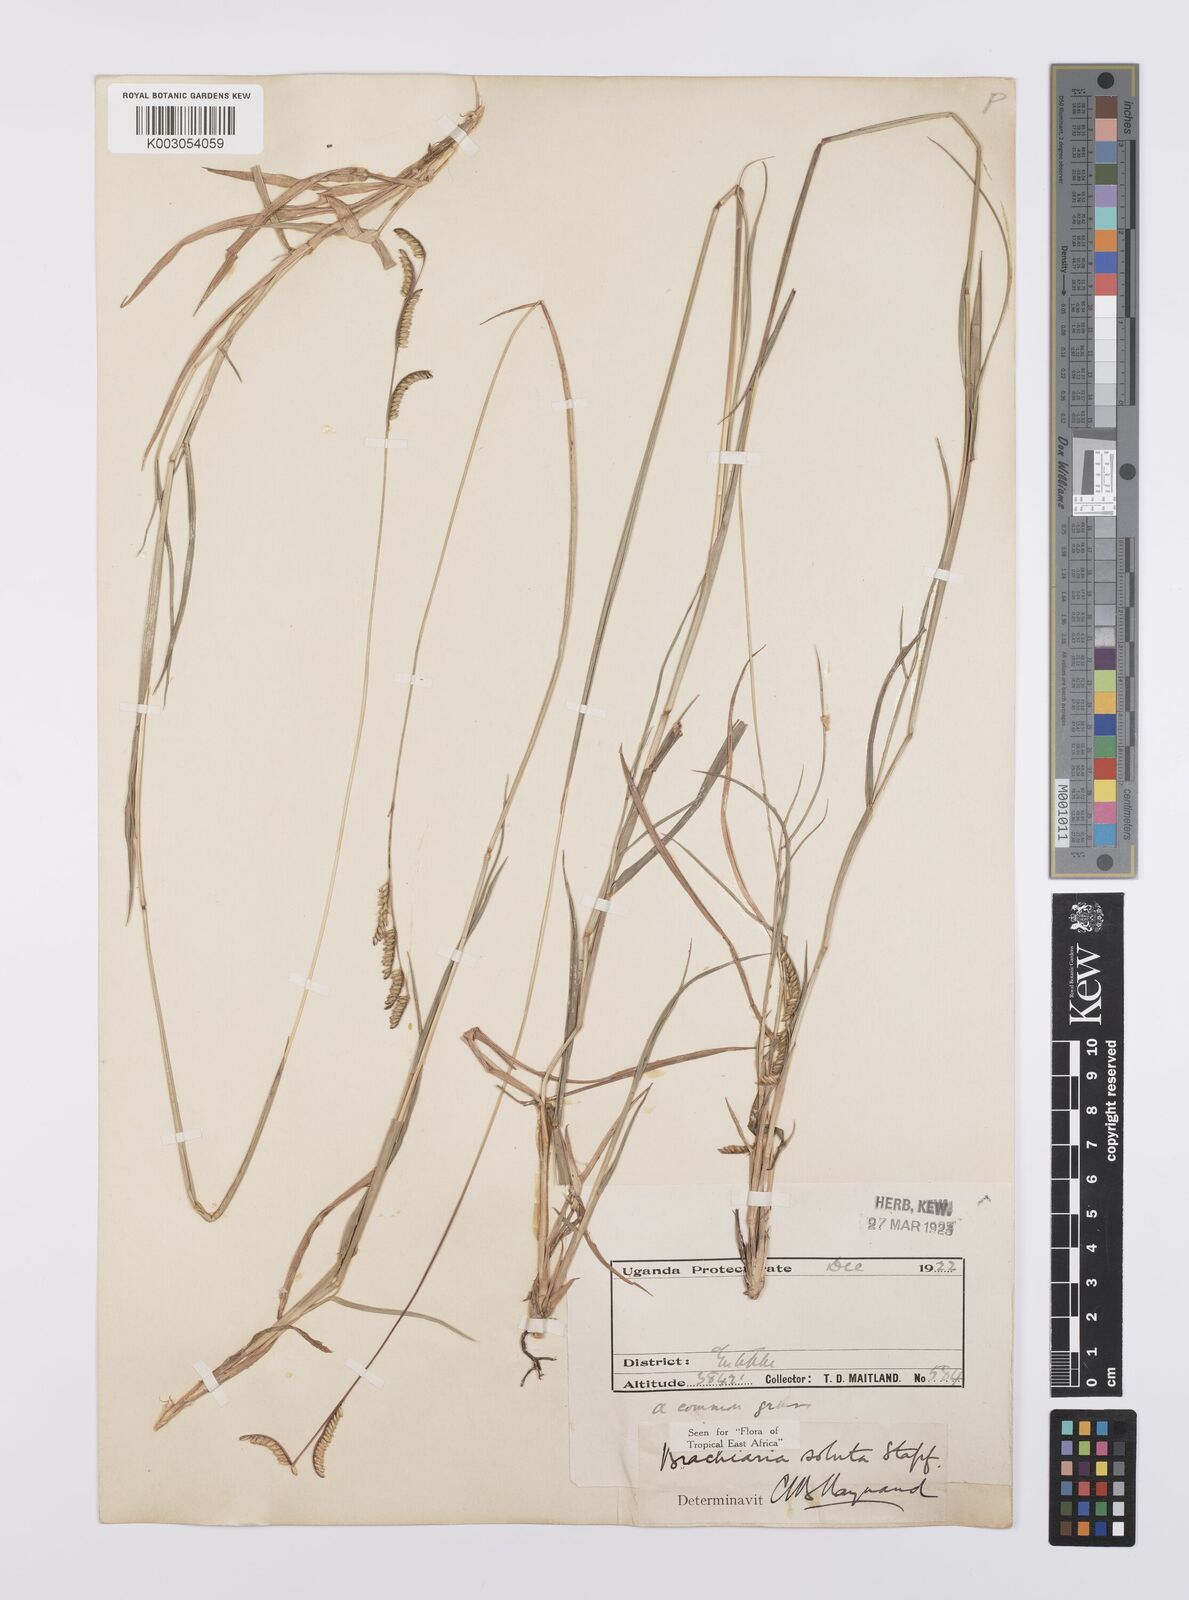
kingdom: Plantae
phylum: Tracheophyta
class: Liliopsida
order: Poales
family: Poaceae
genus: Urochloa
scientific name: Urochloa jubata
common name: Buffalograss
